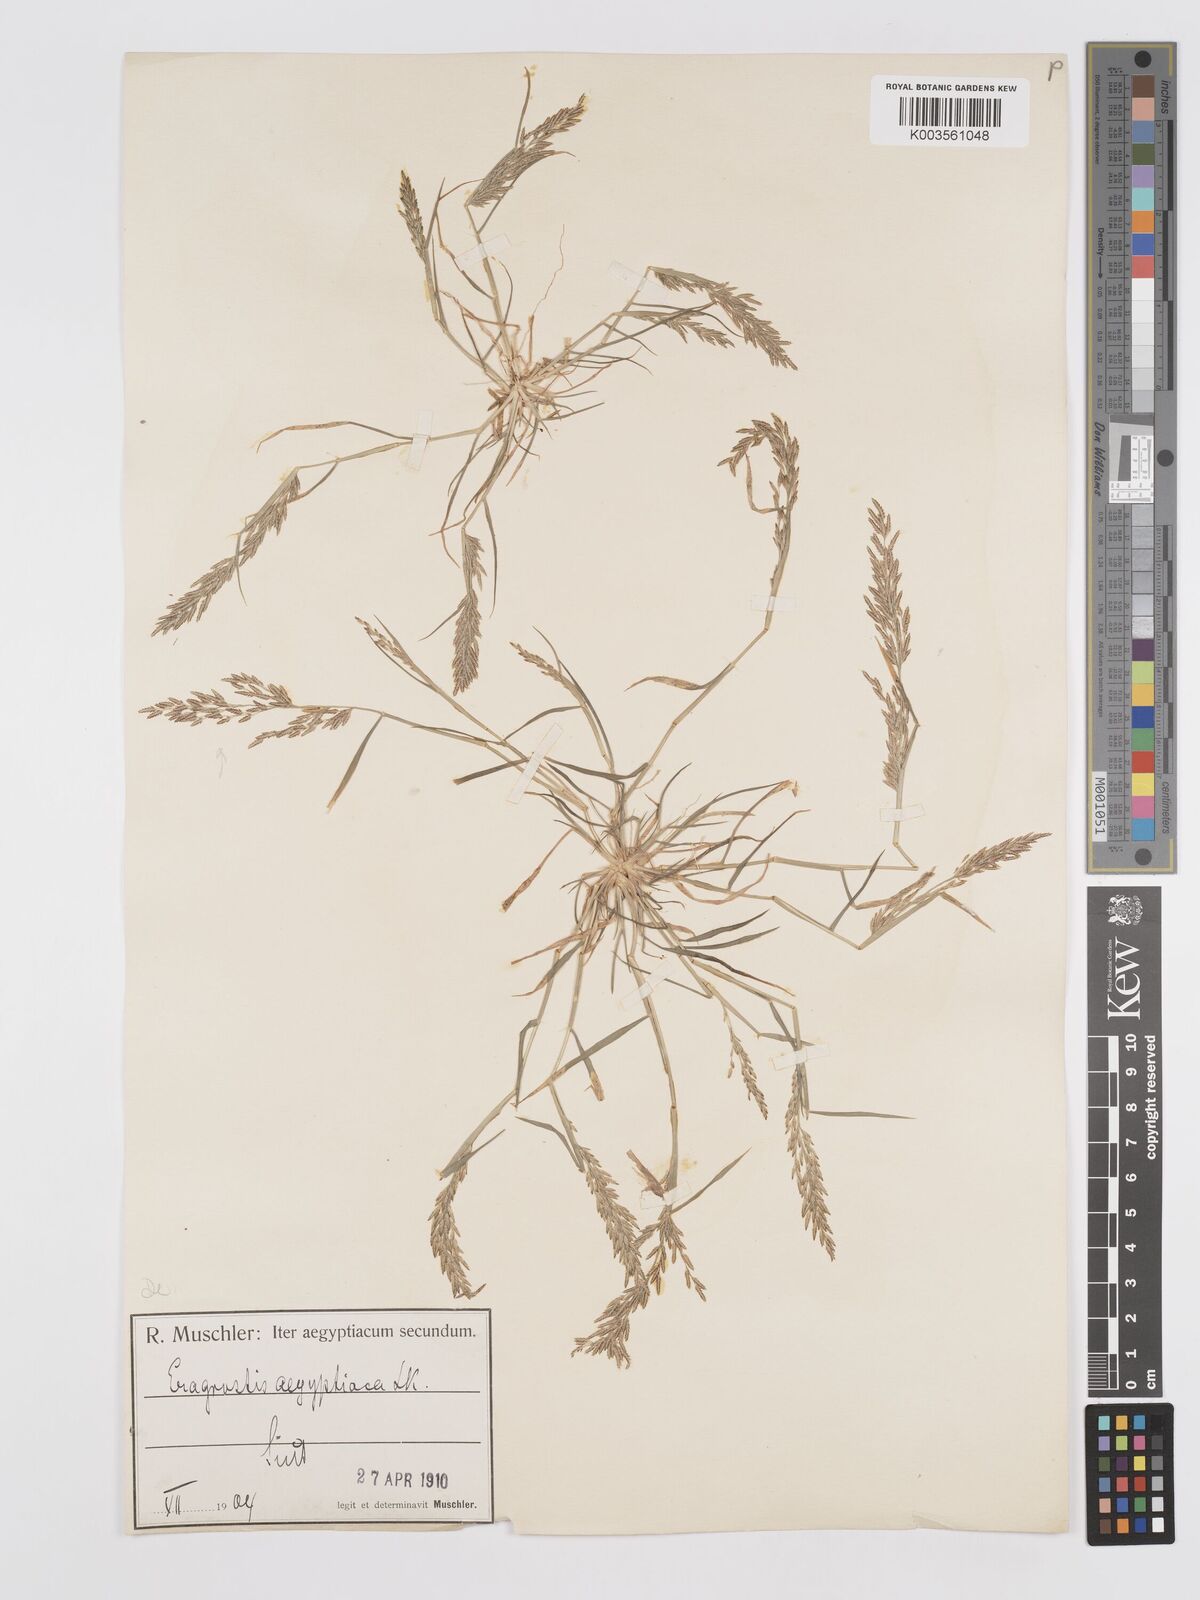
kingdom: Plantae
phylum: Tracheophyta
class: Liliopsida
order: Poales
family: Poaceae
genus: Eragrostis
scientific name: Eragrostis aegyptiaca
